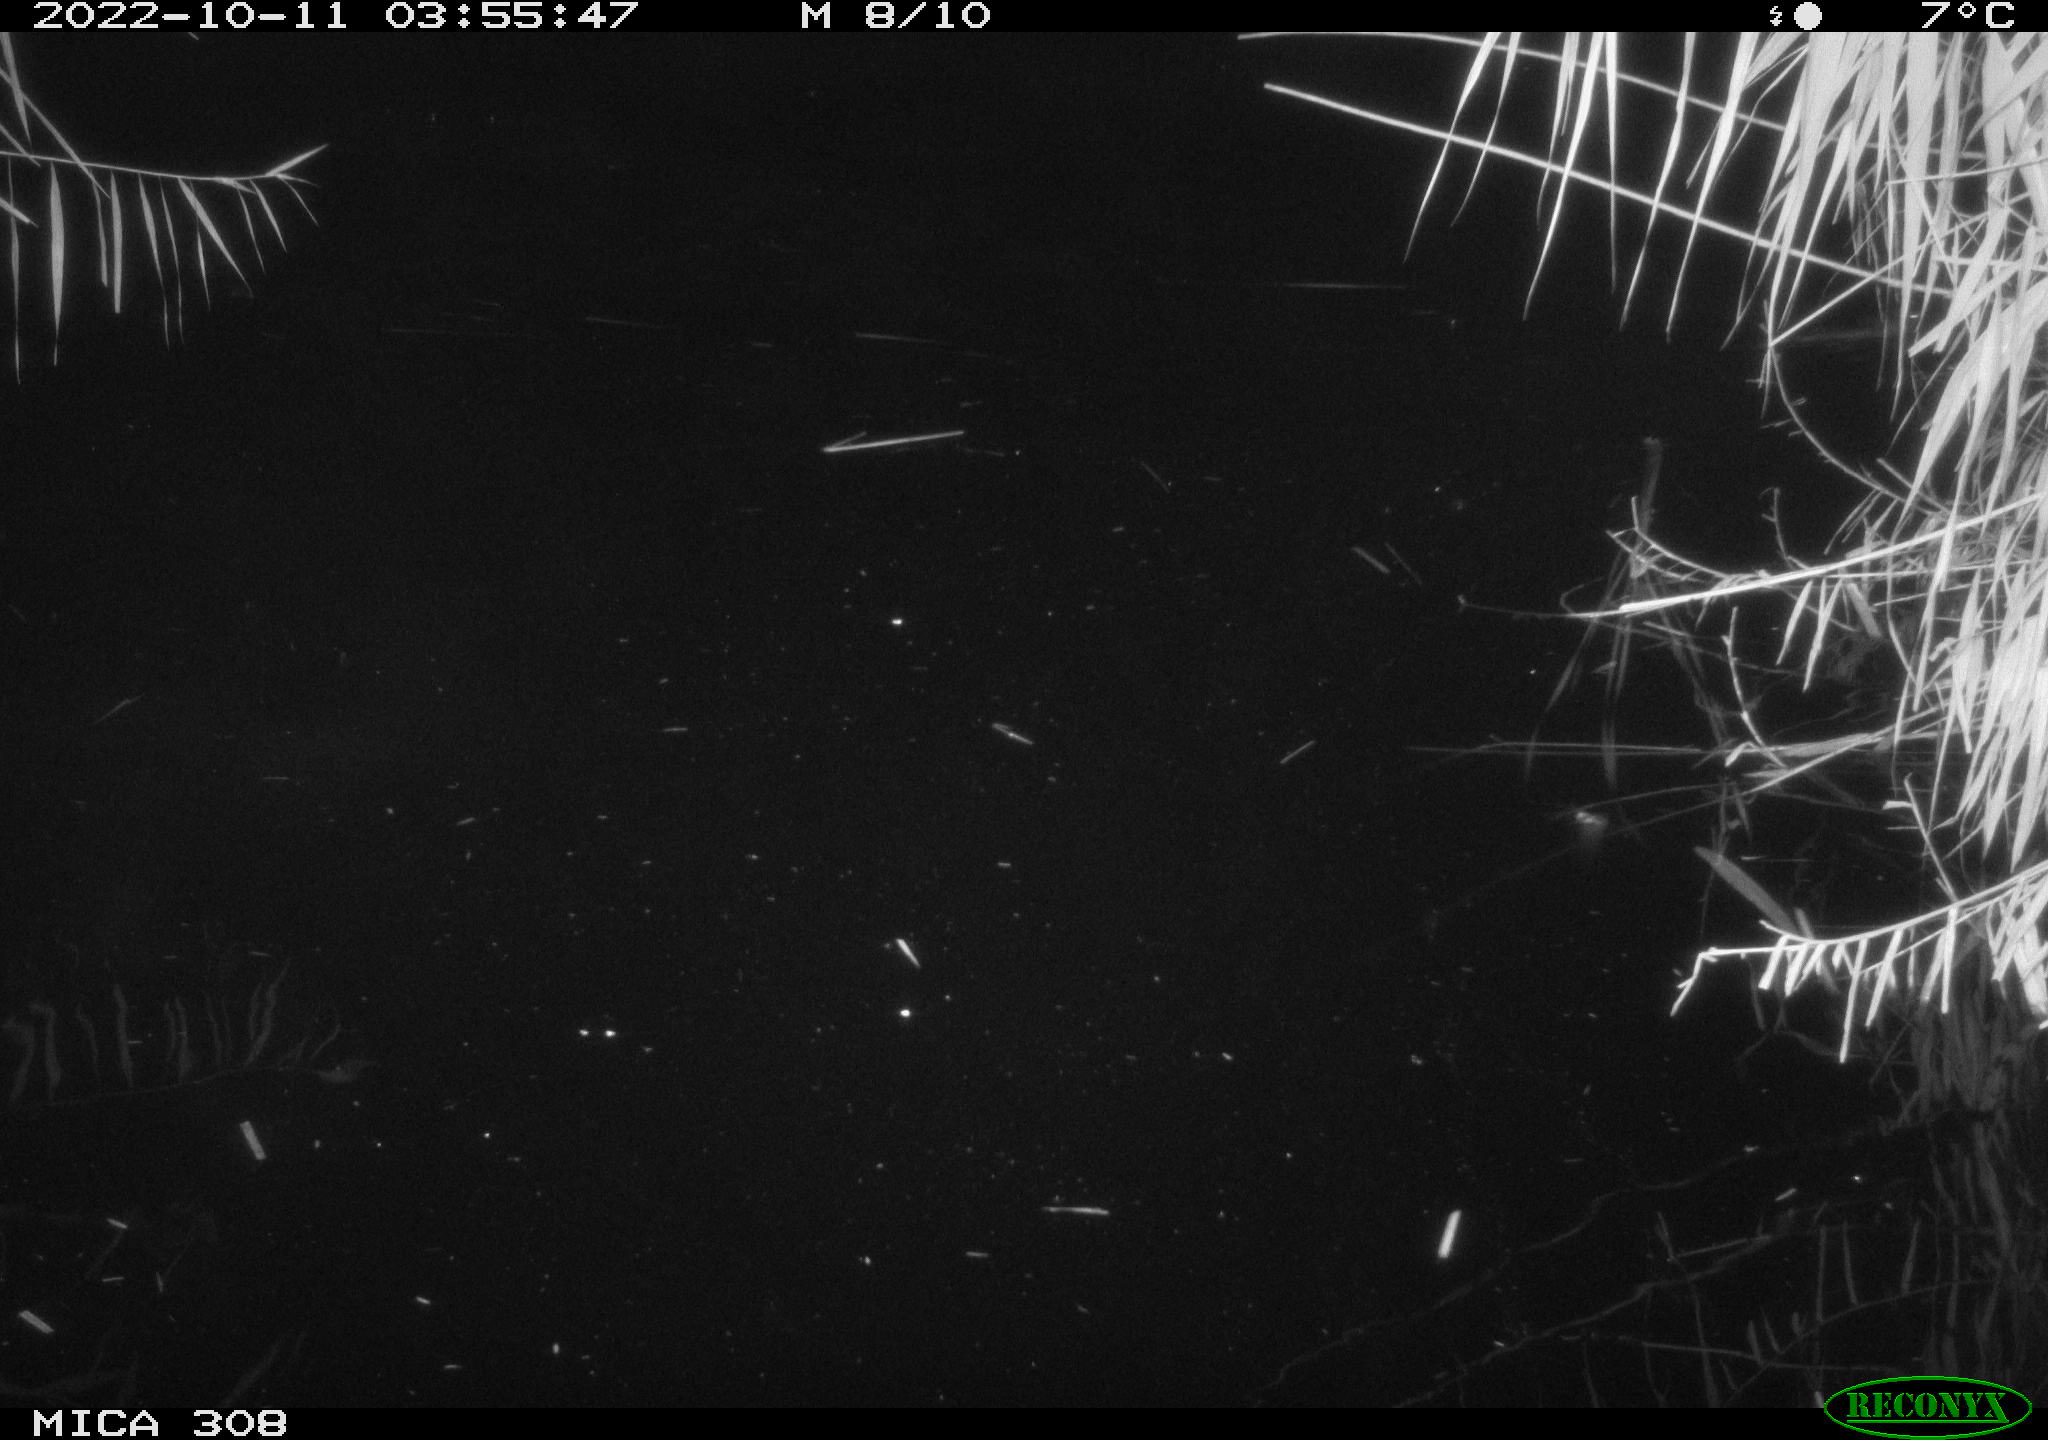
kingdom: Animalia
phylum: Chordata
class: Mammalia
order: Rodentia
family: Cricetidae
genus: Ondatra
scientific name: Ondatra zibethicus
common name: Muskrat
